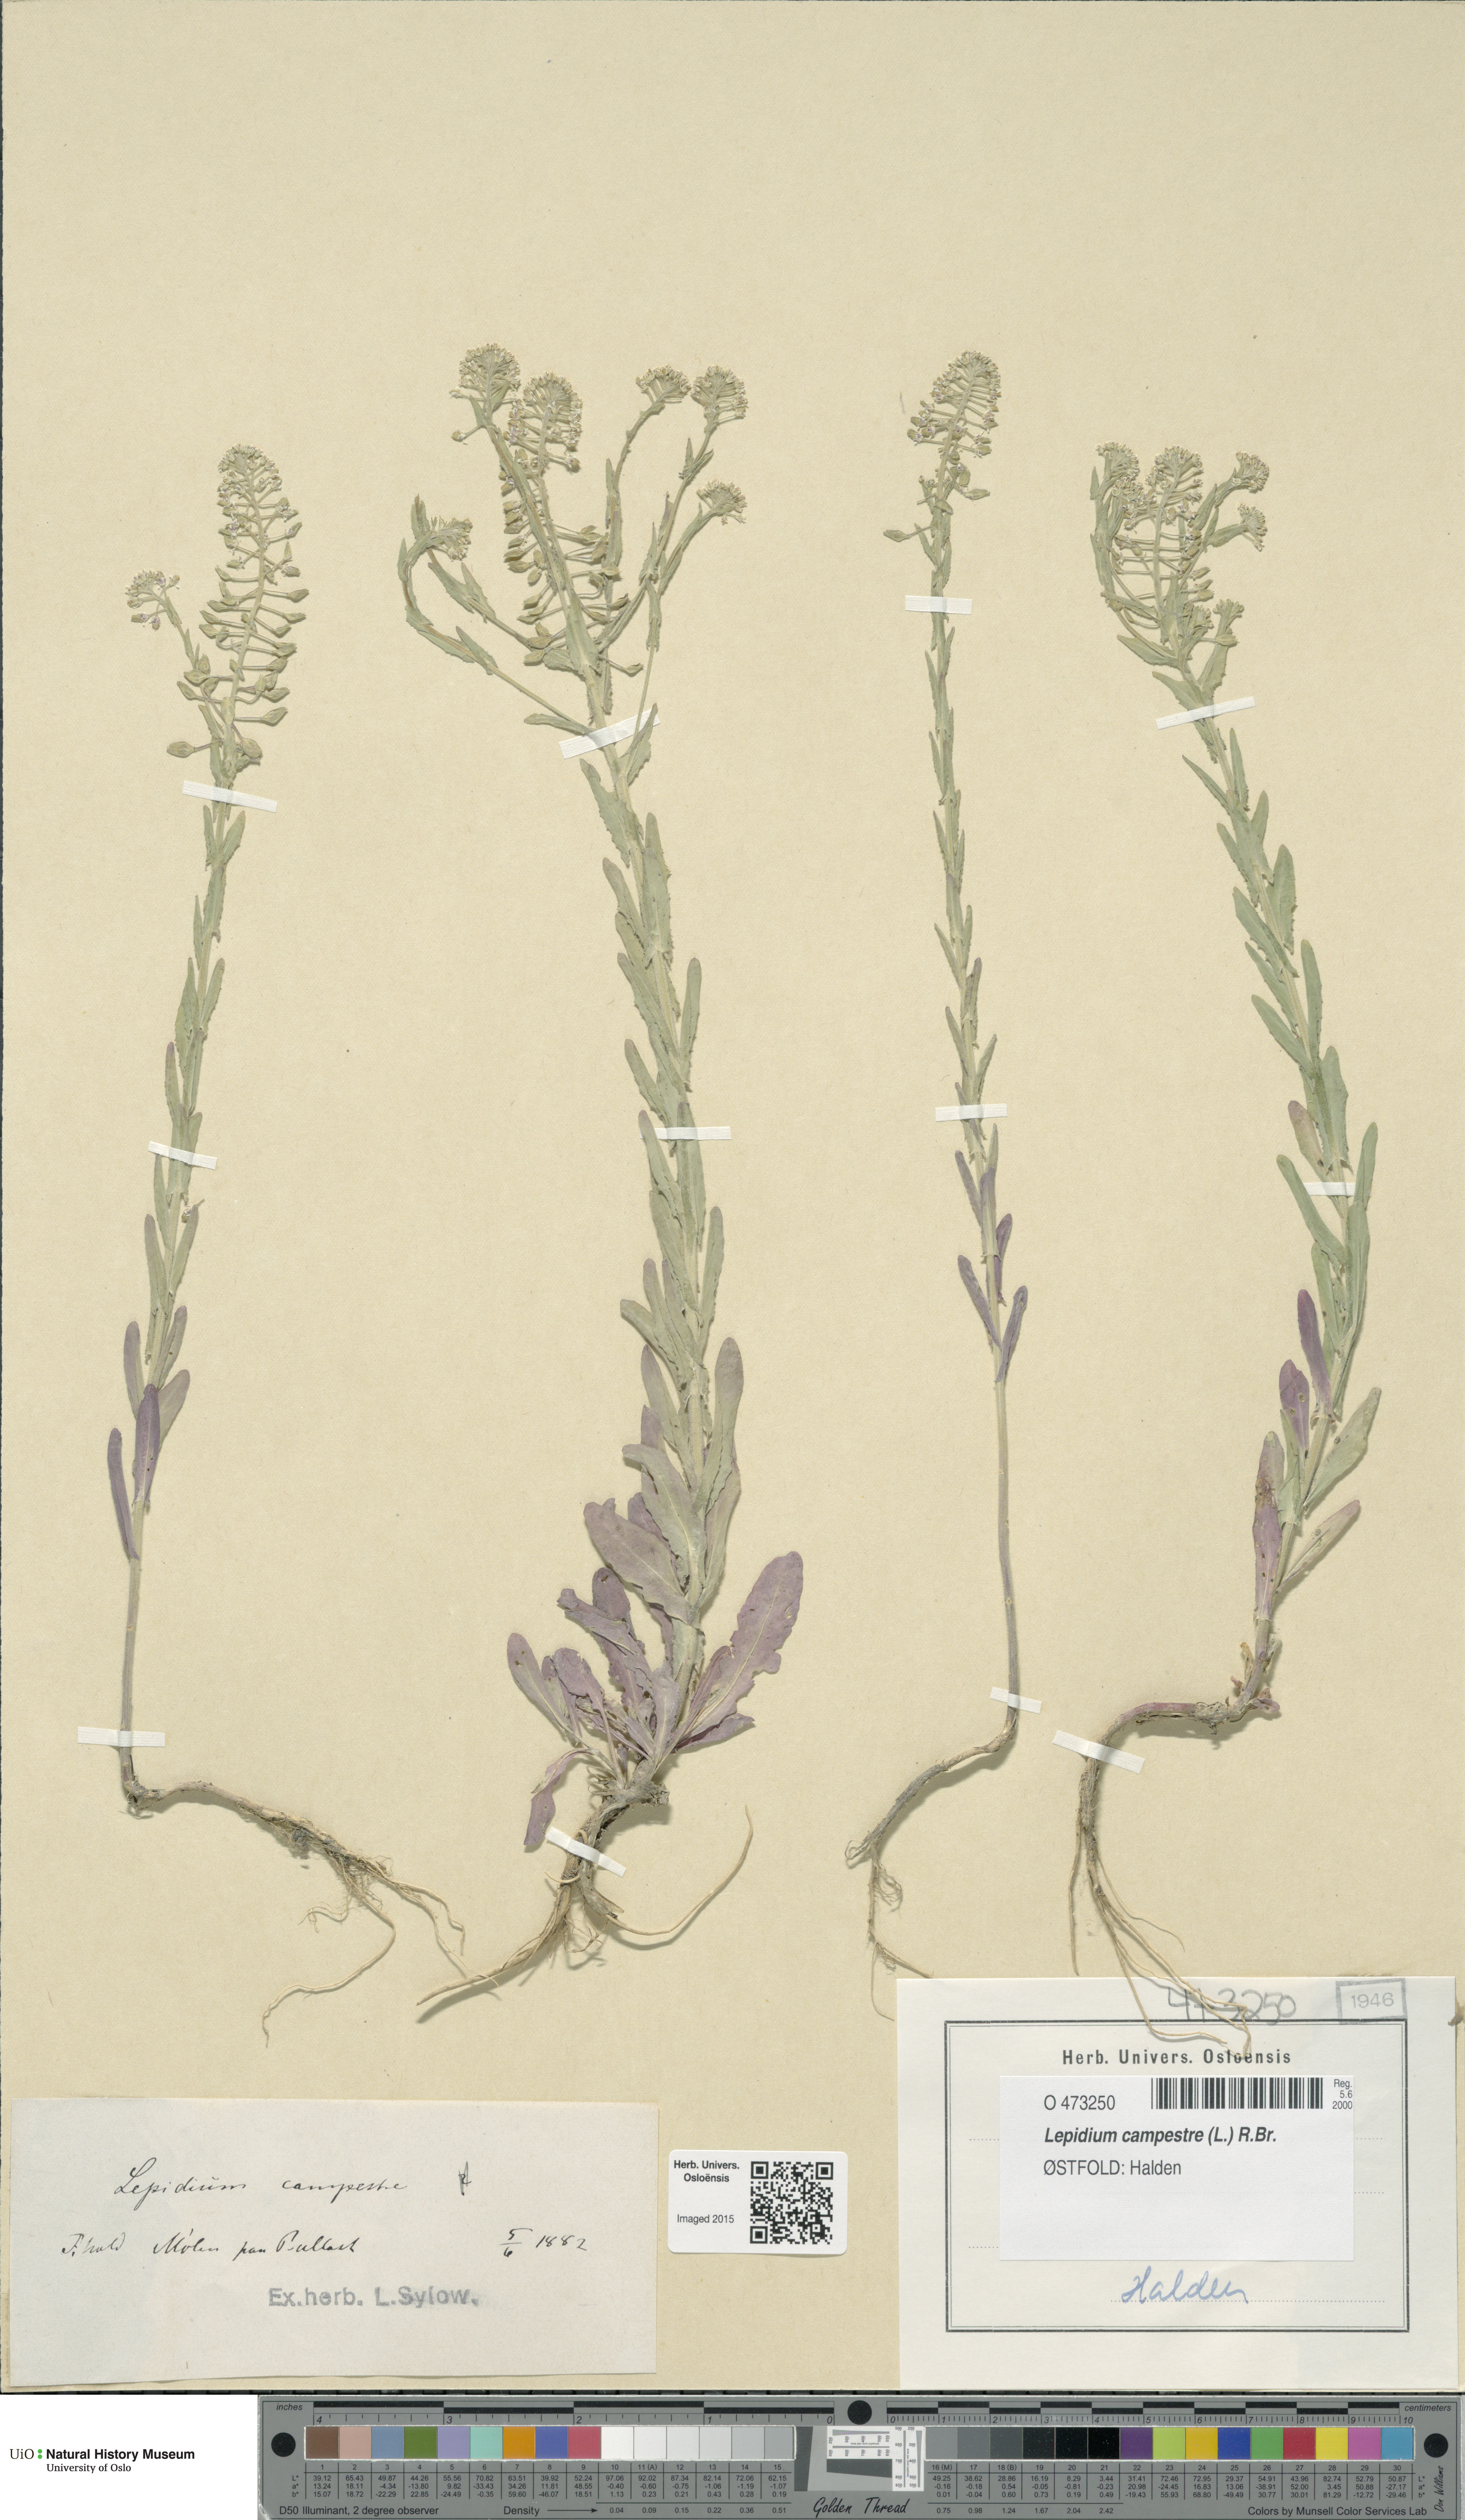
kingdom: Plantae
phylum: Tracheophyta
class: Magnoliopsida
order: Brassicales
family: Brassicaceae
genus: Lepidium
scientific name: Lepidium campestre
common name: Field pepperwort
